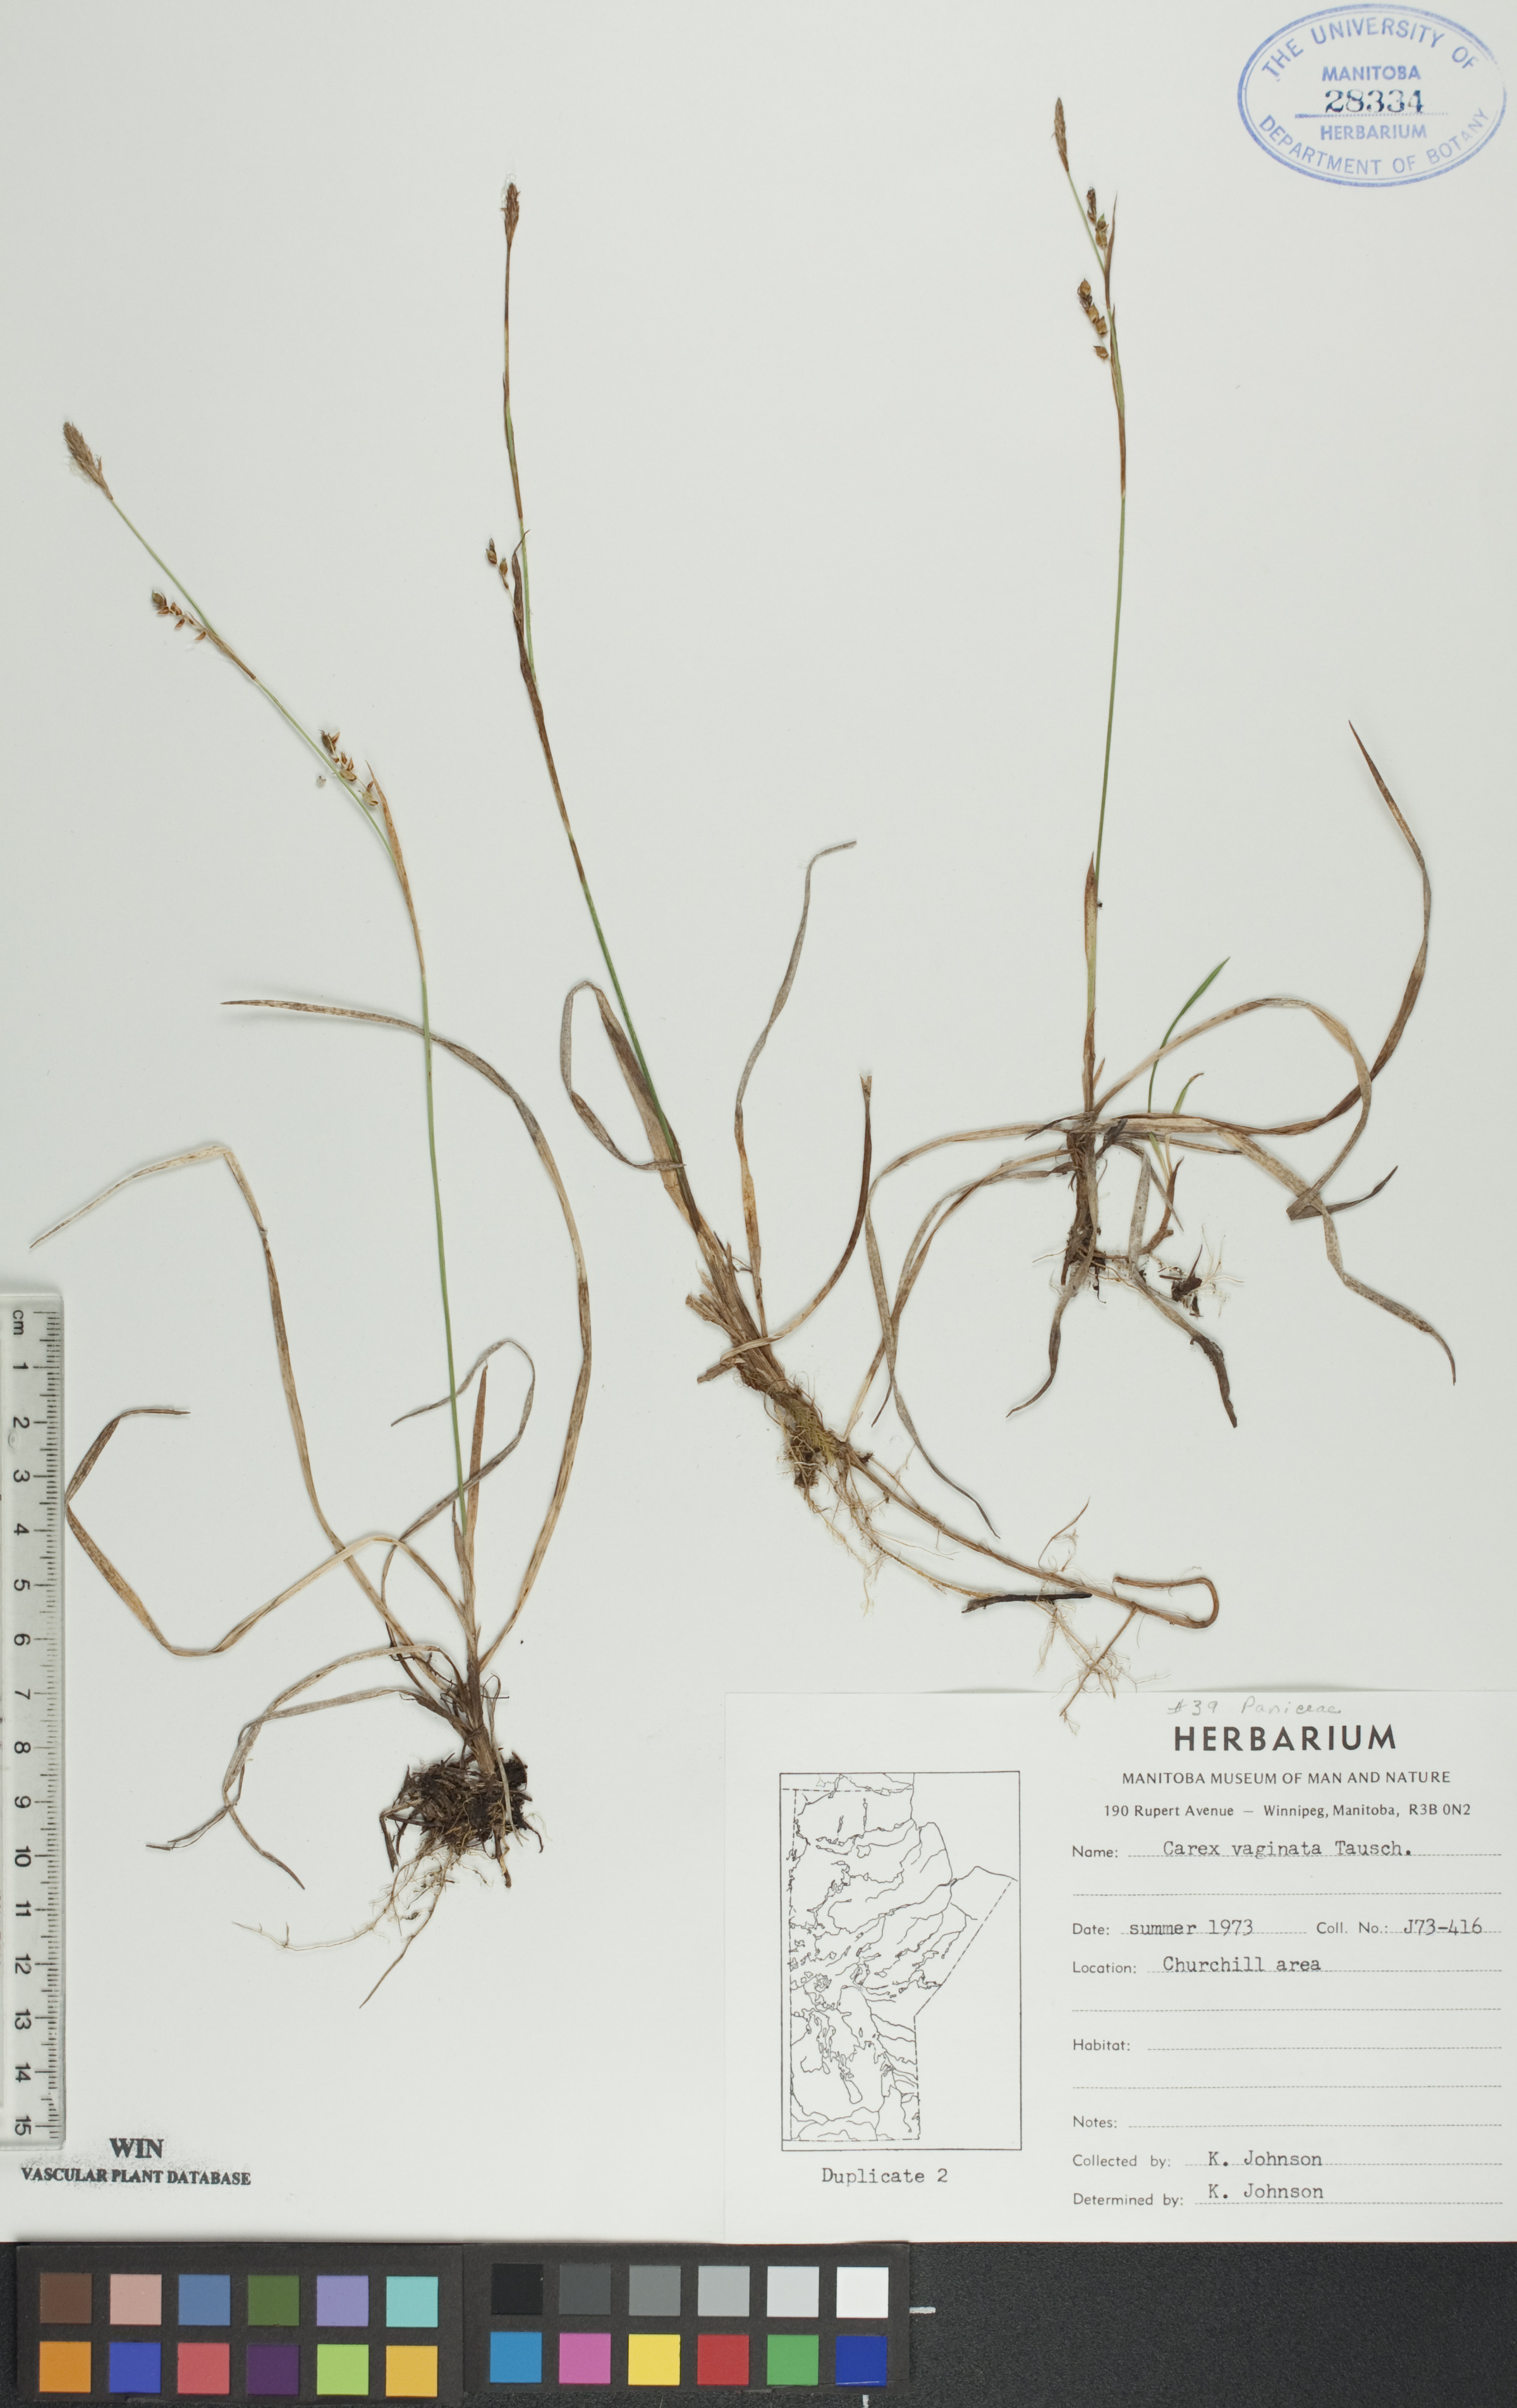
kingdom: Plantae
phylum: Tracheophyta
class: Liliopsida
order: Poales
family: Cyperaceae
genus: Carex
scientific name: Carex vaginata
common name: Sheathed sedge
